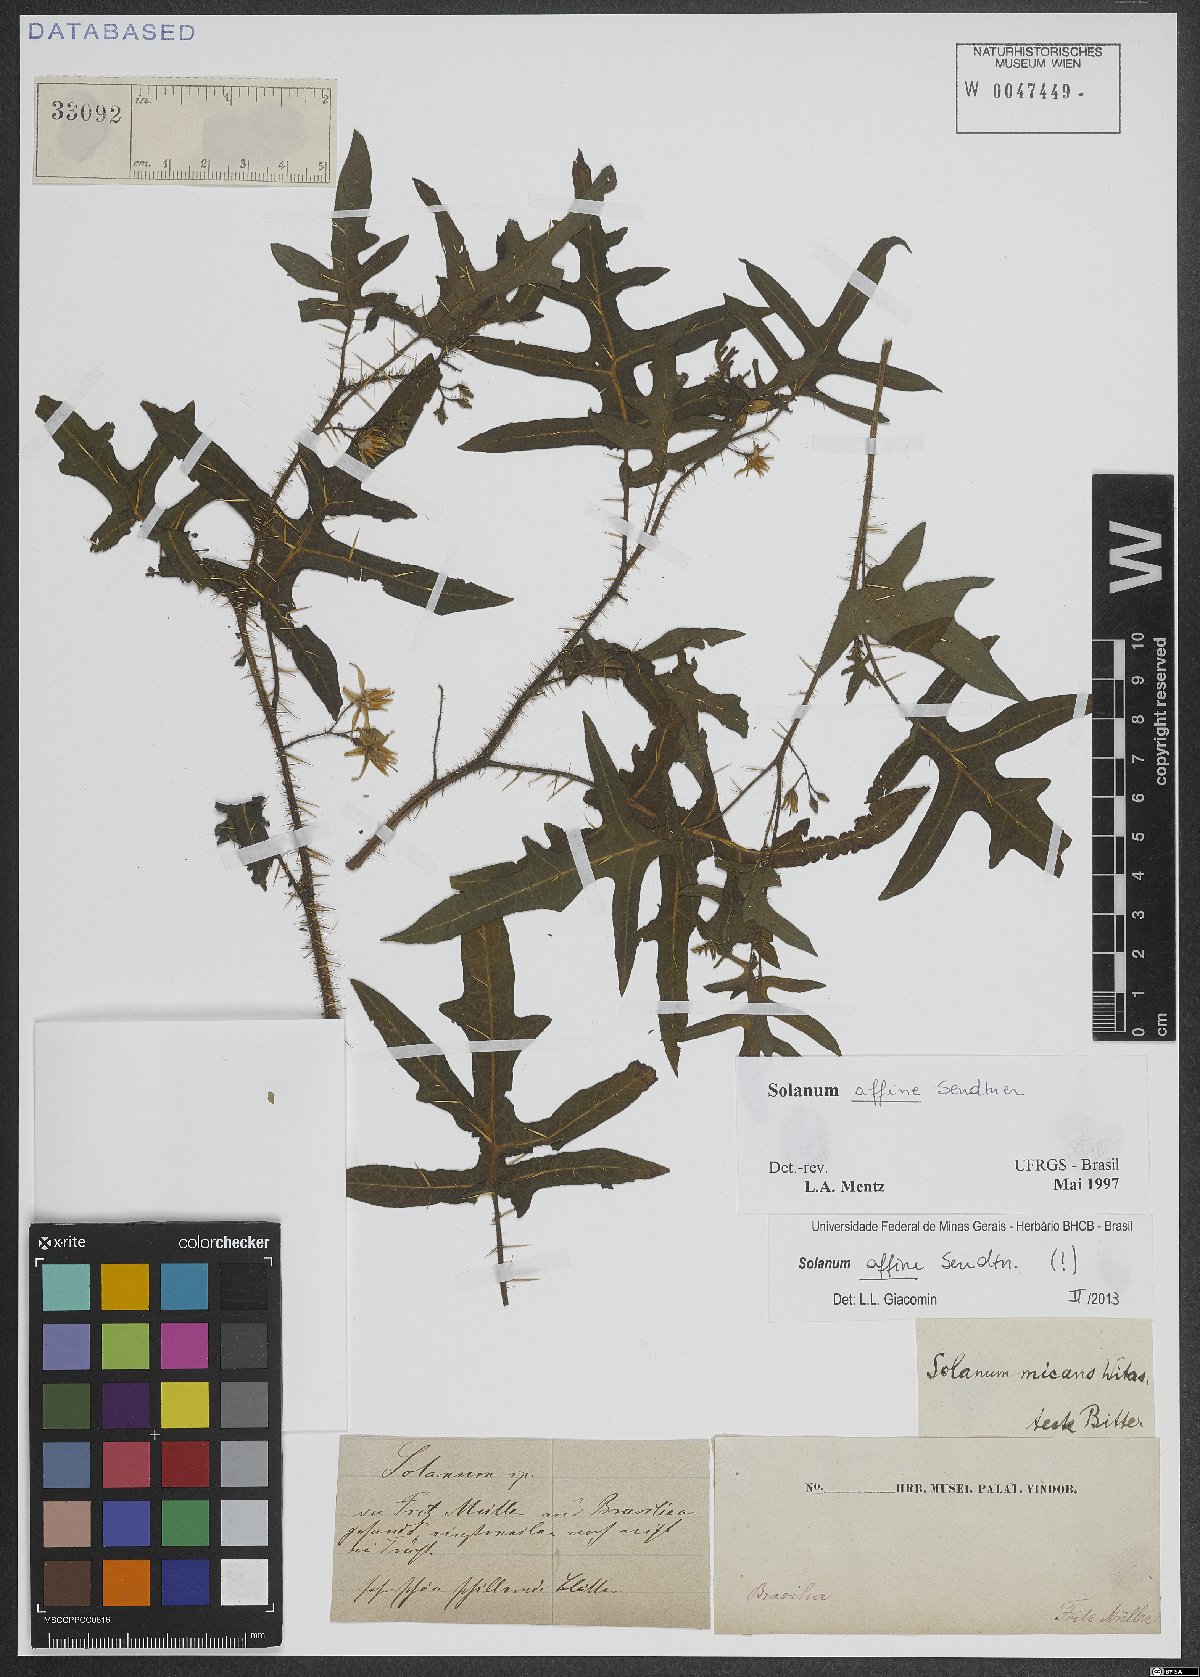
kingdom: Plantae
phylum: Tracheophyta
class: Magnoliopsida
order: Solanales
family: Solanaceae
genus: Solanum
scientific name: Solanum affine
